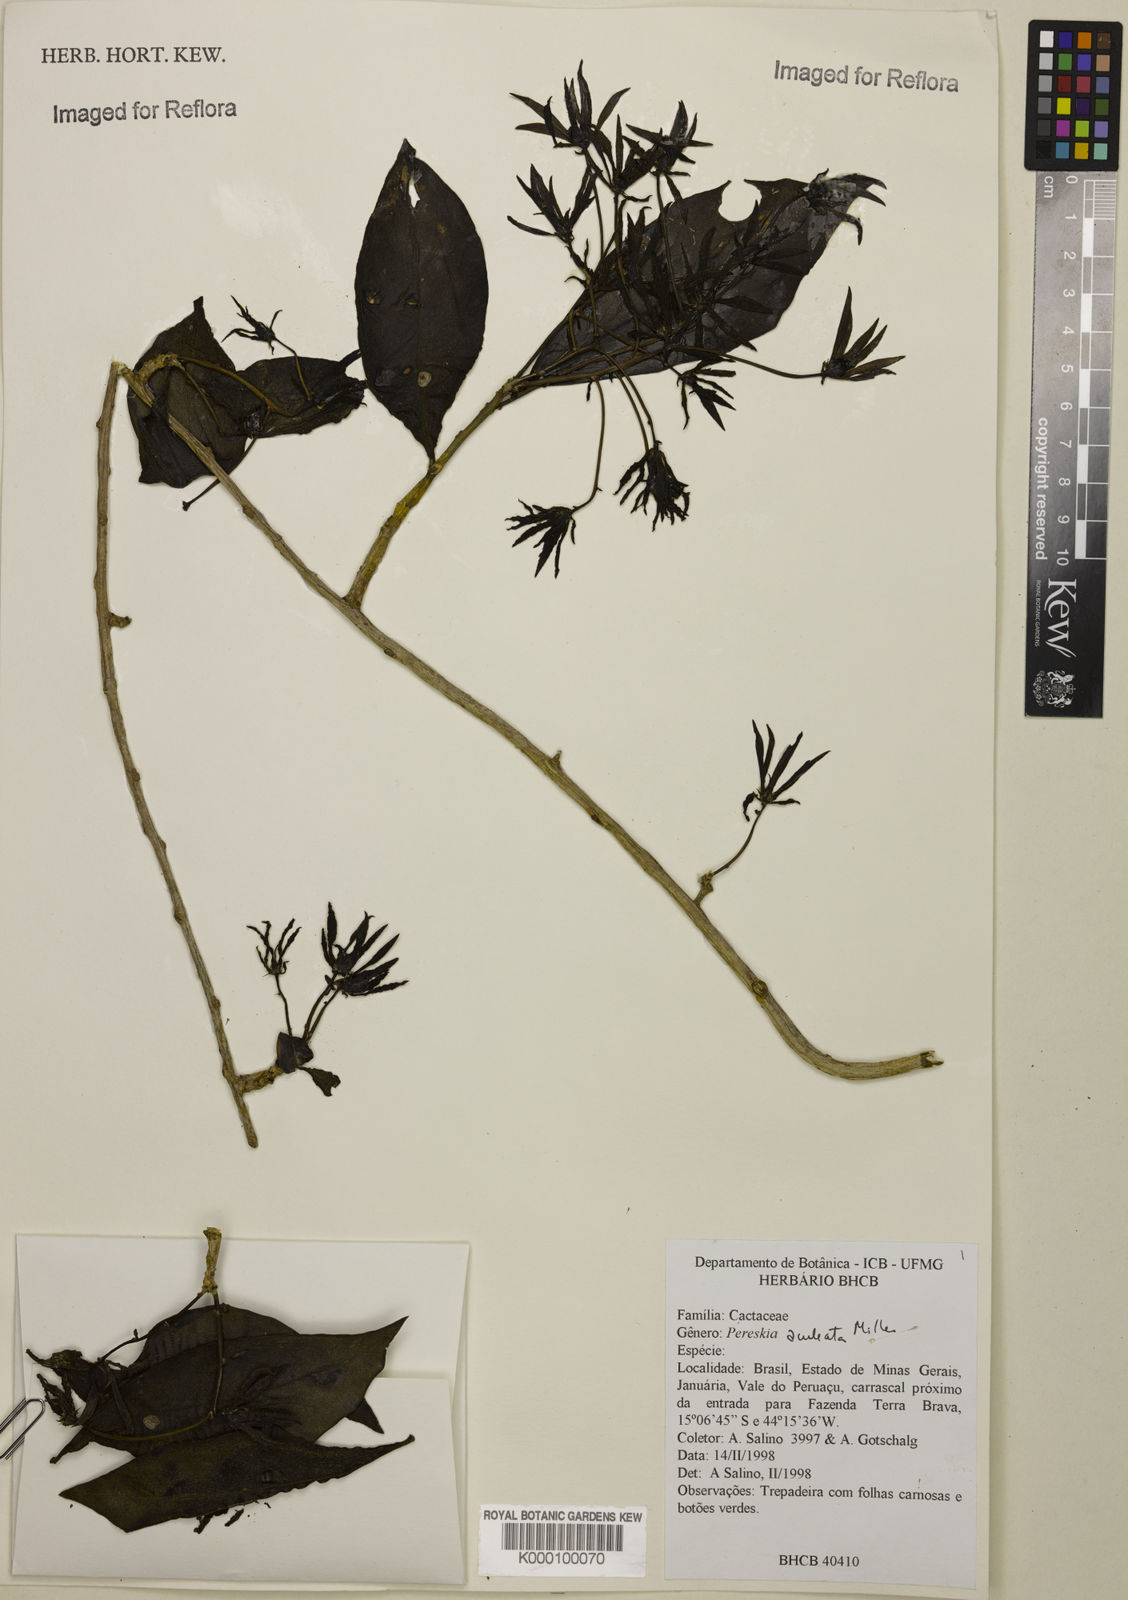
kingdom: Plantae
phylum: Tracheophyta
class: Magnoliopsida
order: Caryophyllales
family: Cactaceae
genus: Pereskia
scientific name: Pereskia aculeata
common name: Barbados gooseberry
